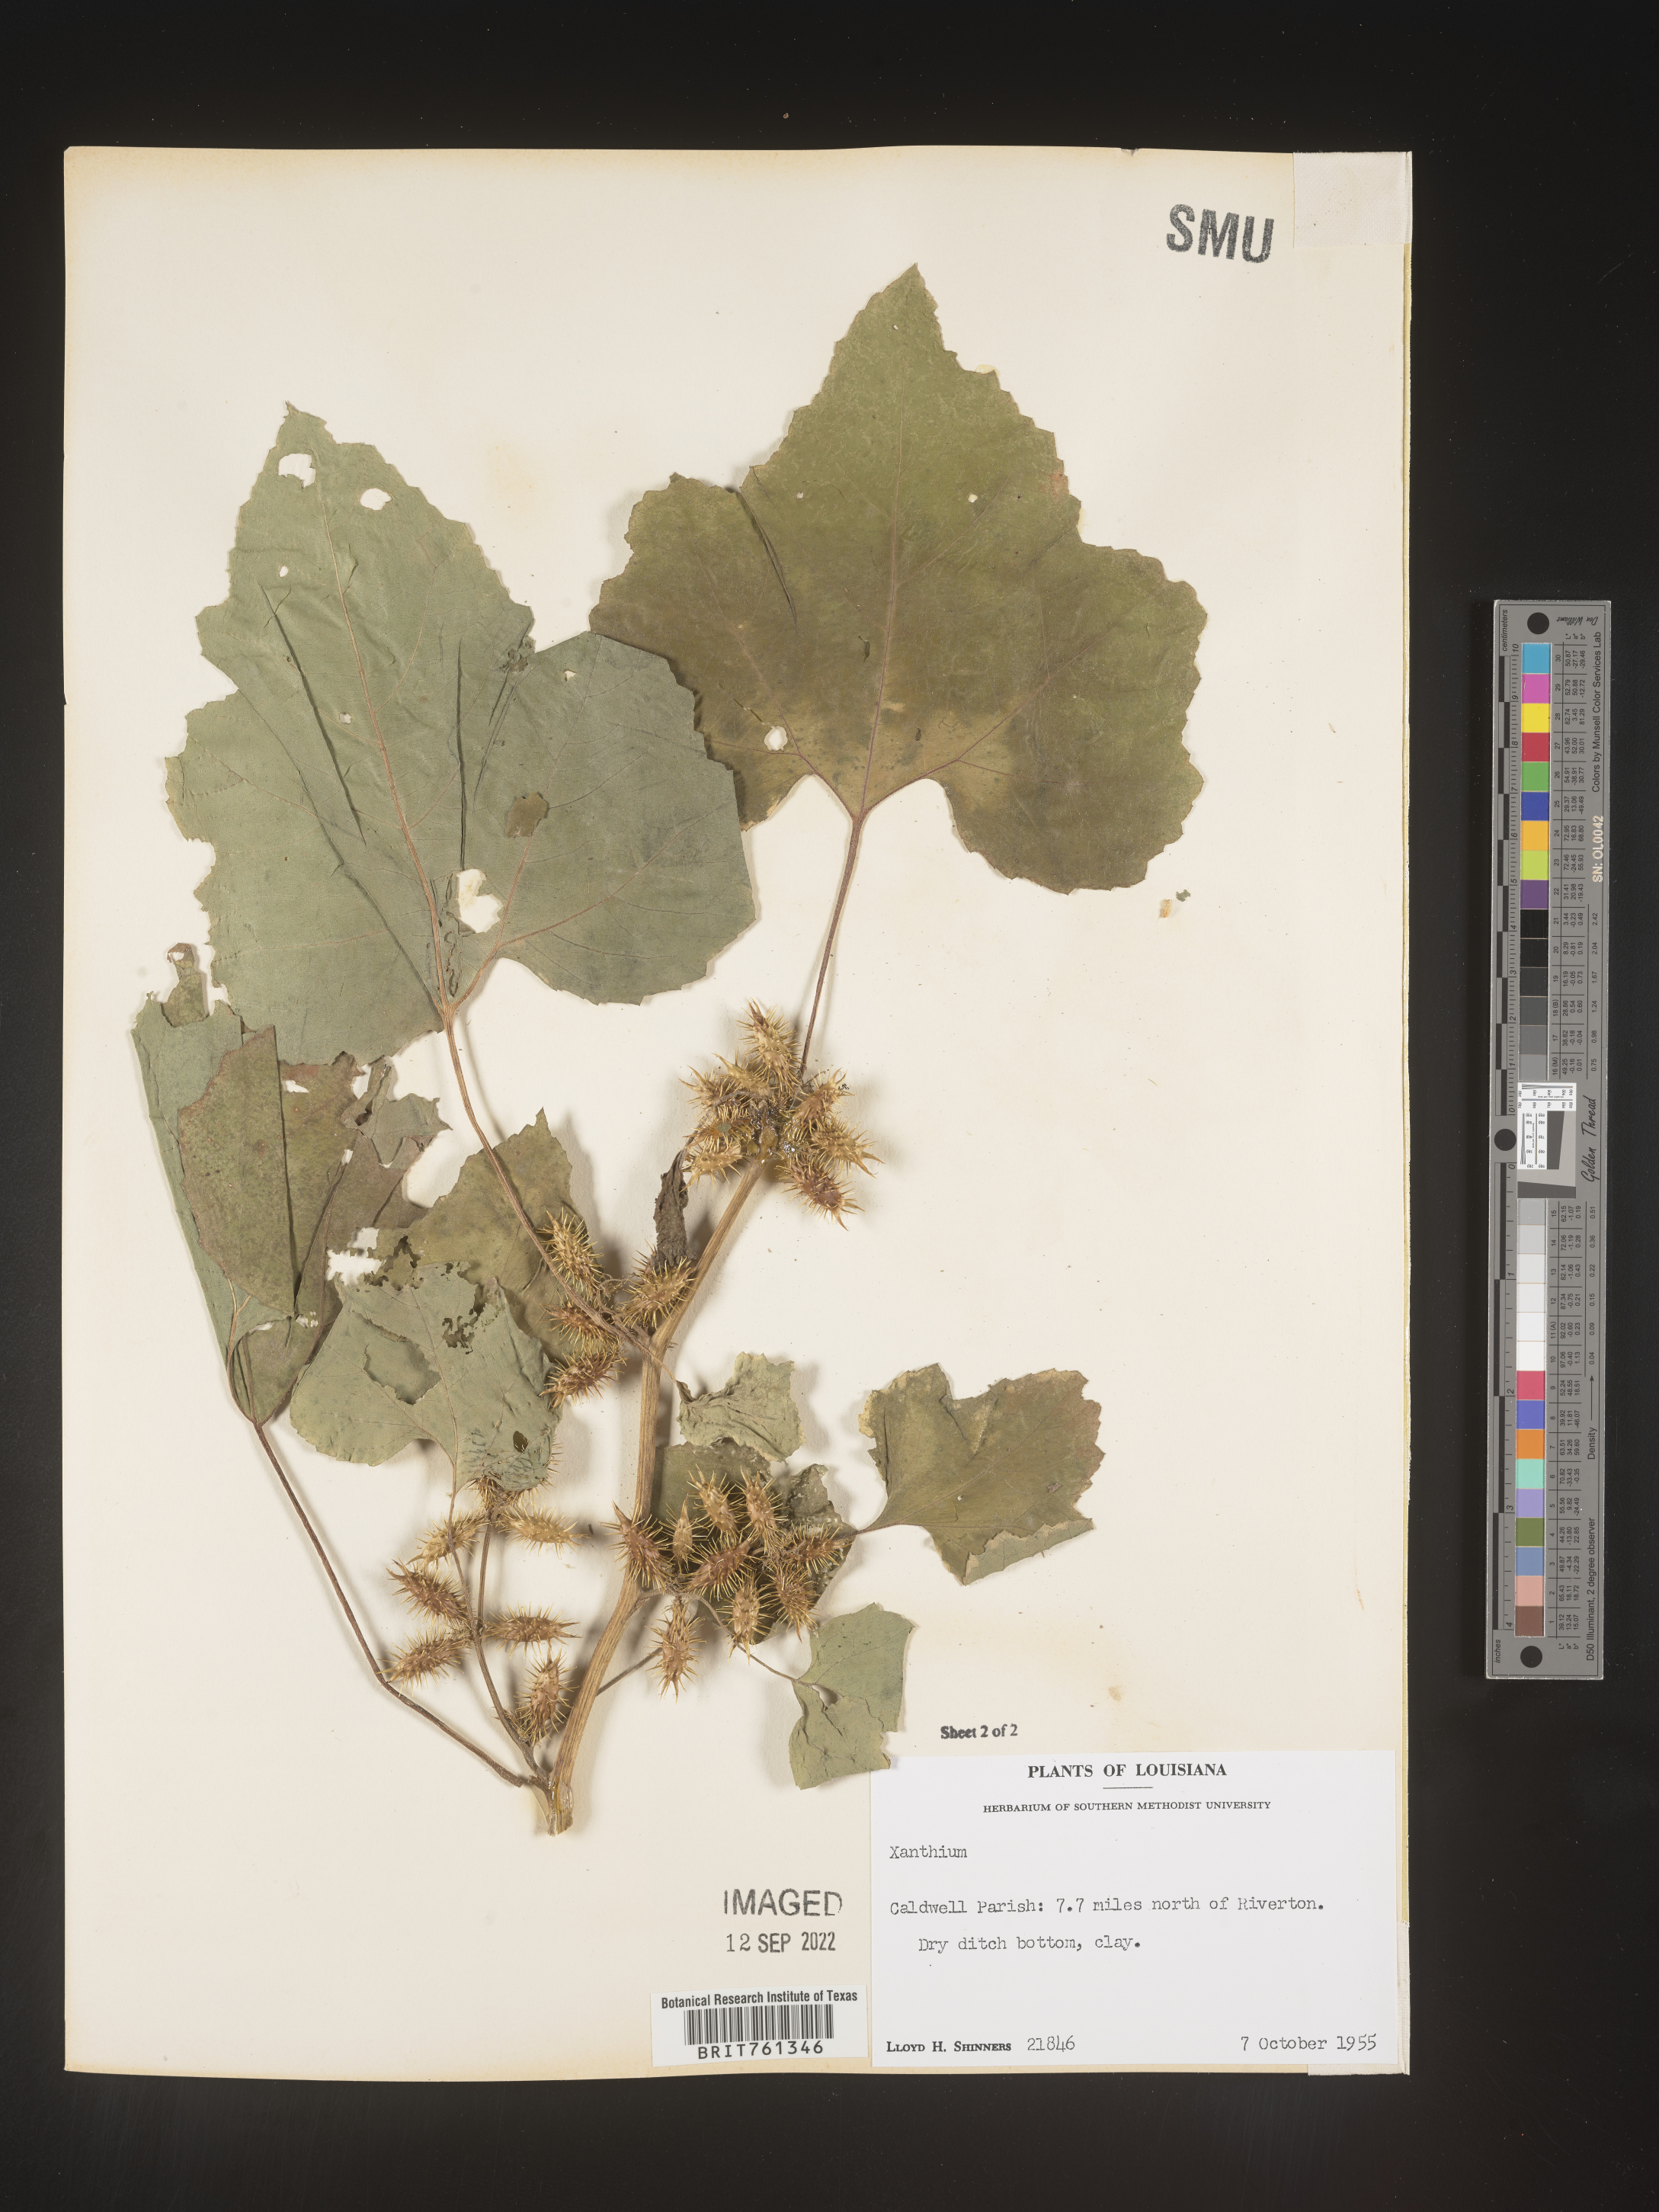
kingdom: Plantae
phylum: Tracheophyta
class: Magnoliopsida
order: Asterales
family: Asteraceae
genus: Xanthium
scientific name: Xanthium
